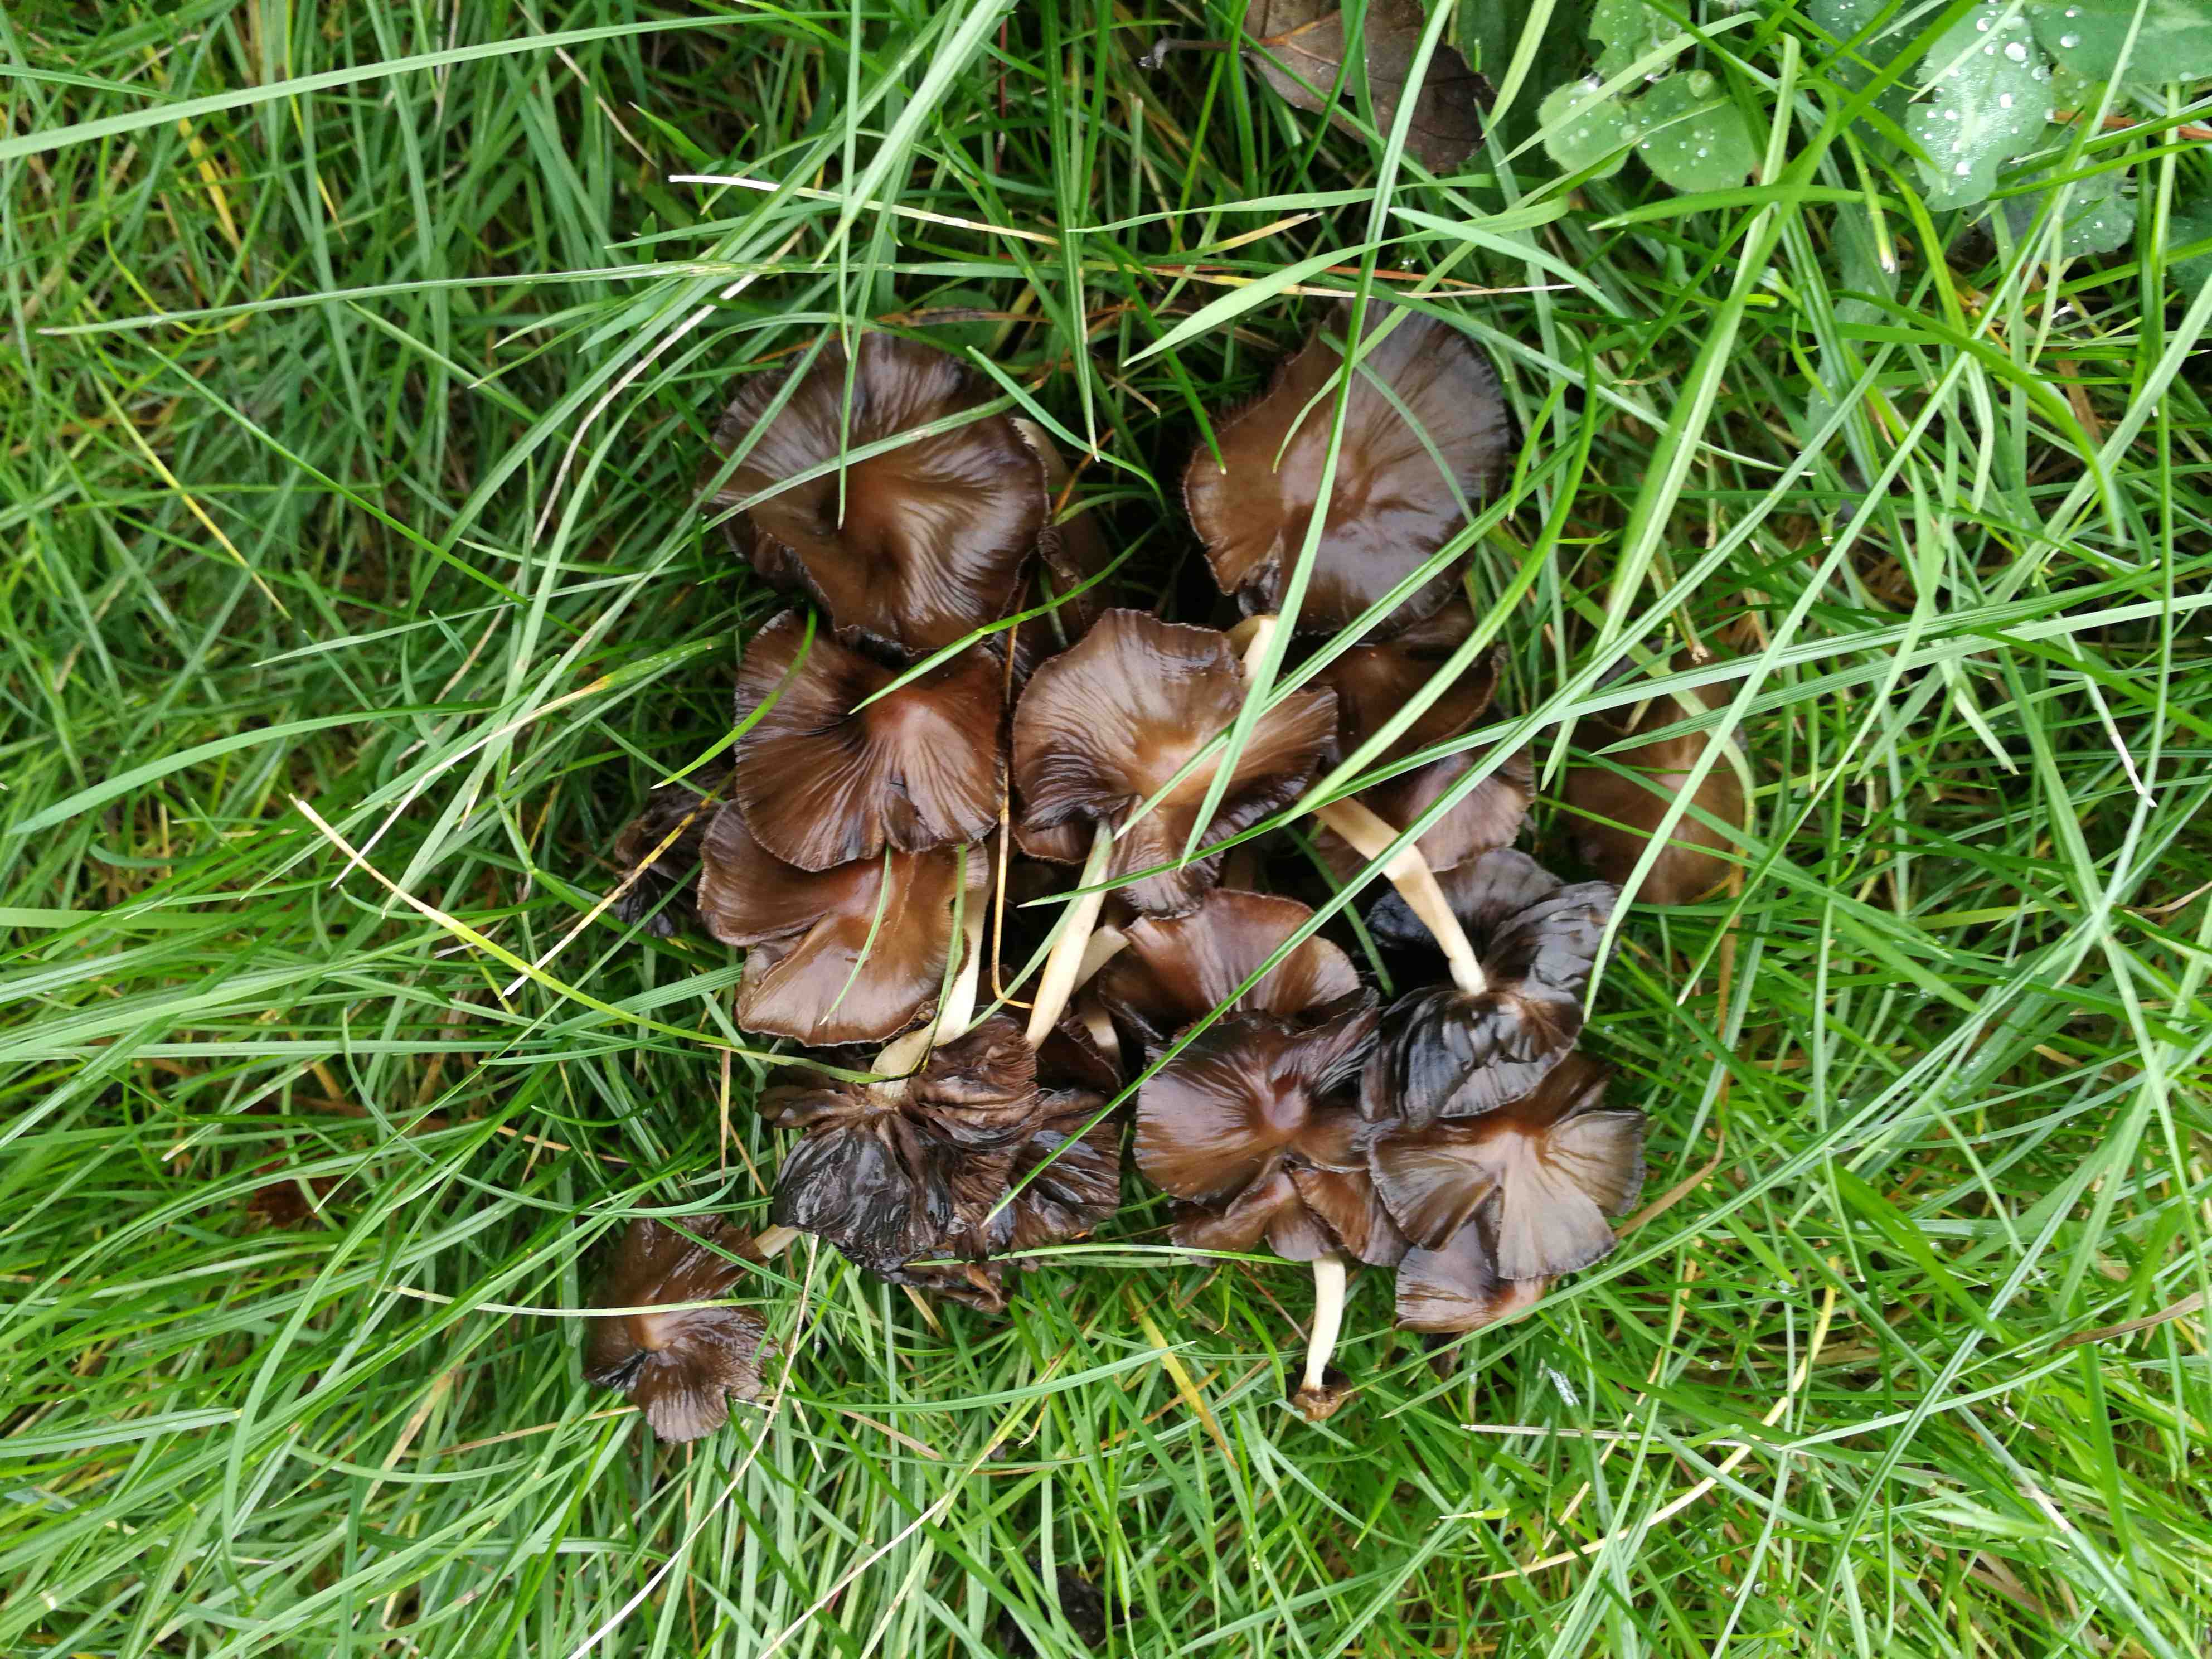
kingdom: Fungi
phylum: Basidiomycota
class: Agaricomycetes
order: Agaricales
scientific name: Agaricales
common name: champignonordenen
